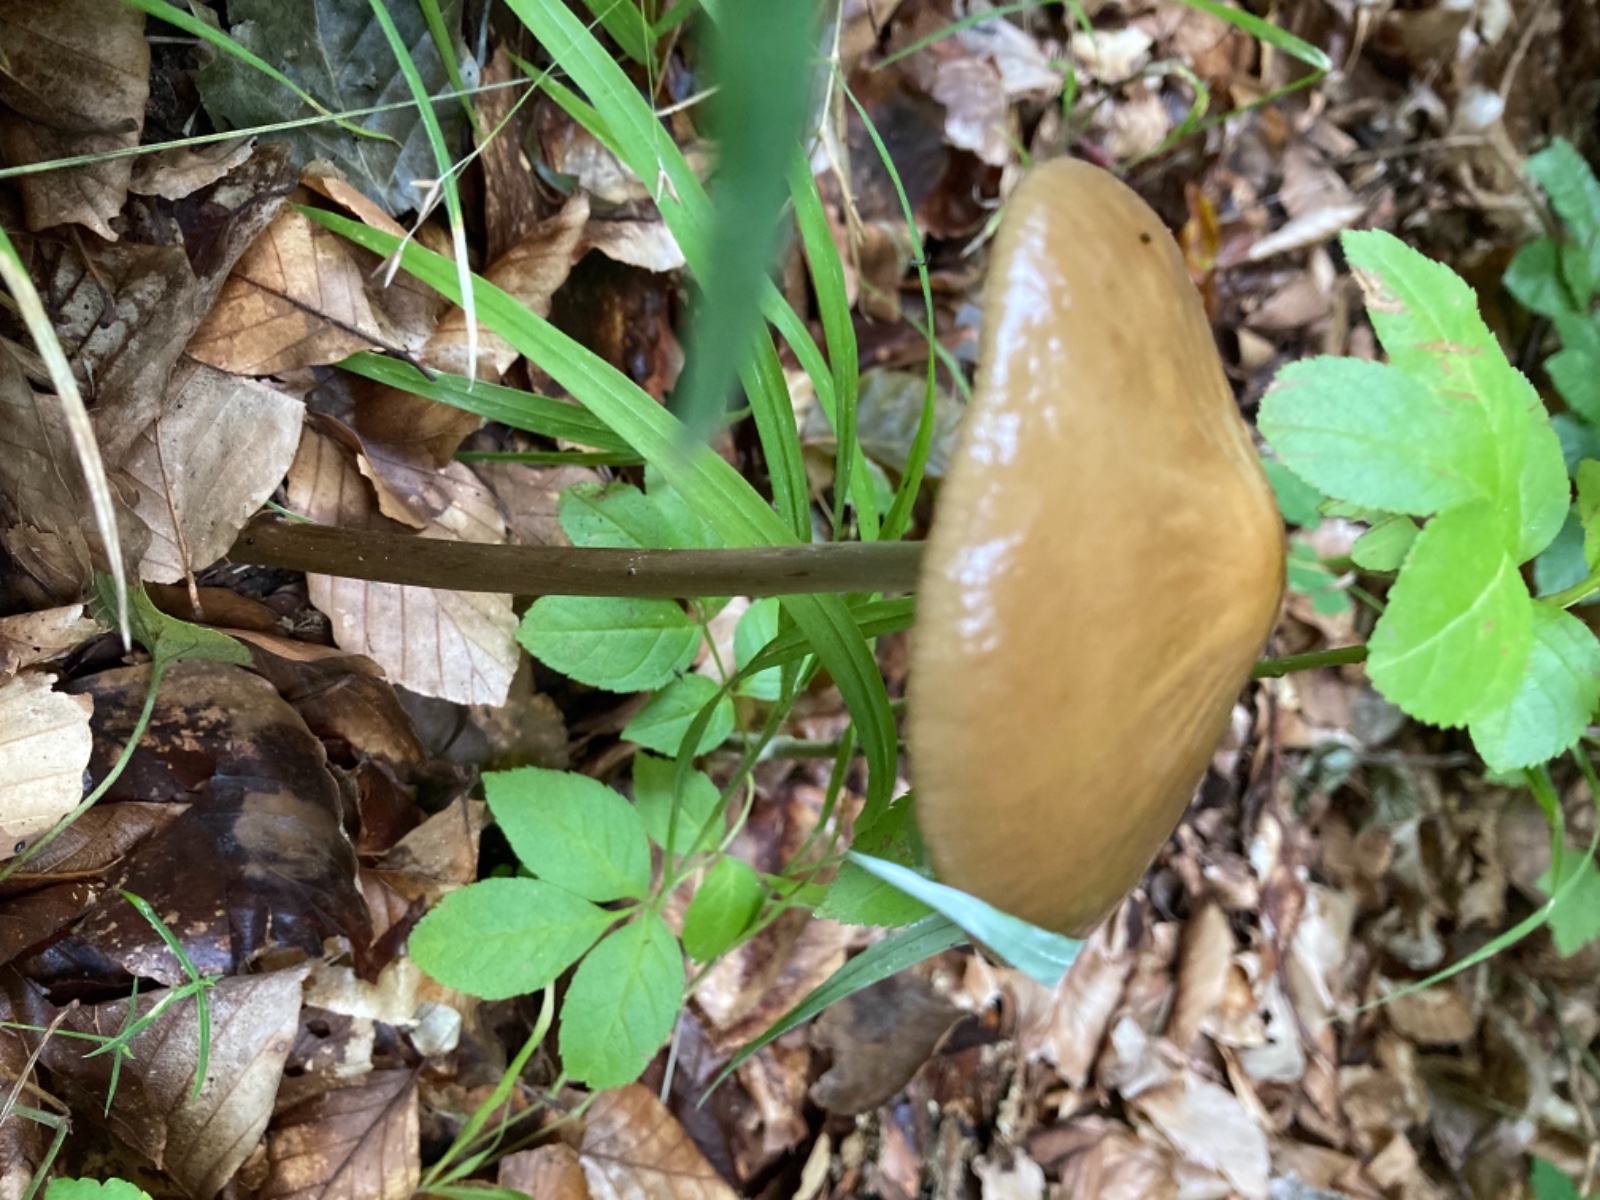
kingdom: Fungi
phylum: Basidiomycota
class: Agaricomycetes
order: Agaricales
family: Physalacriaceae
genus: Hymenopellis
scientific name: Hymenopellis radicata
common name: almindelig pælerodshat
